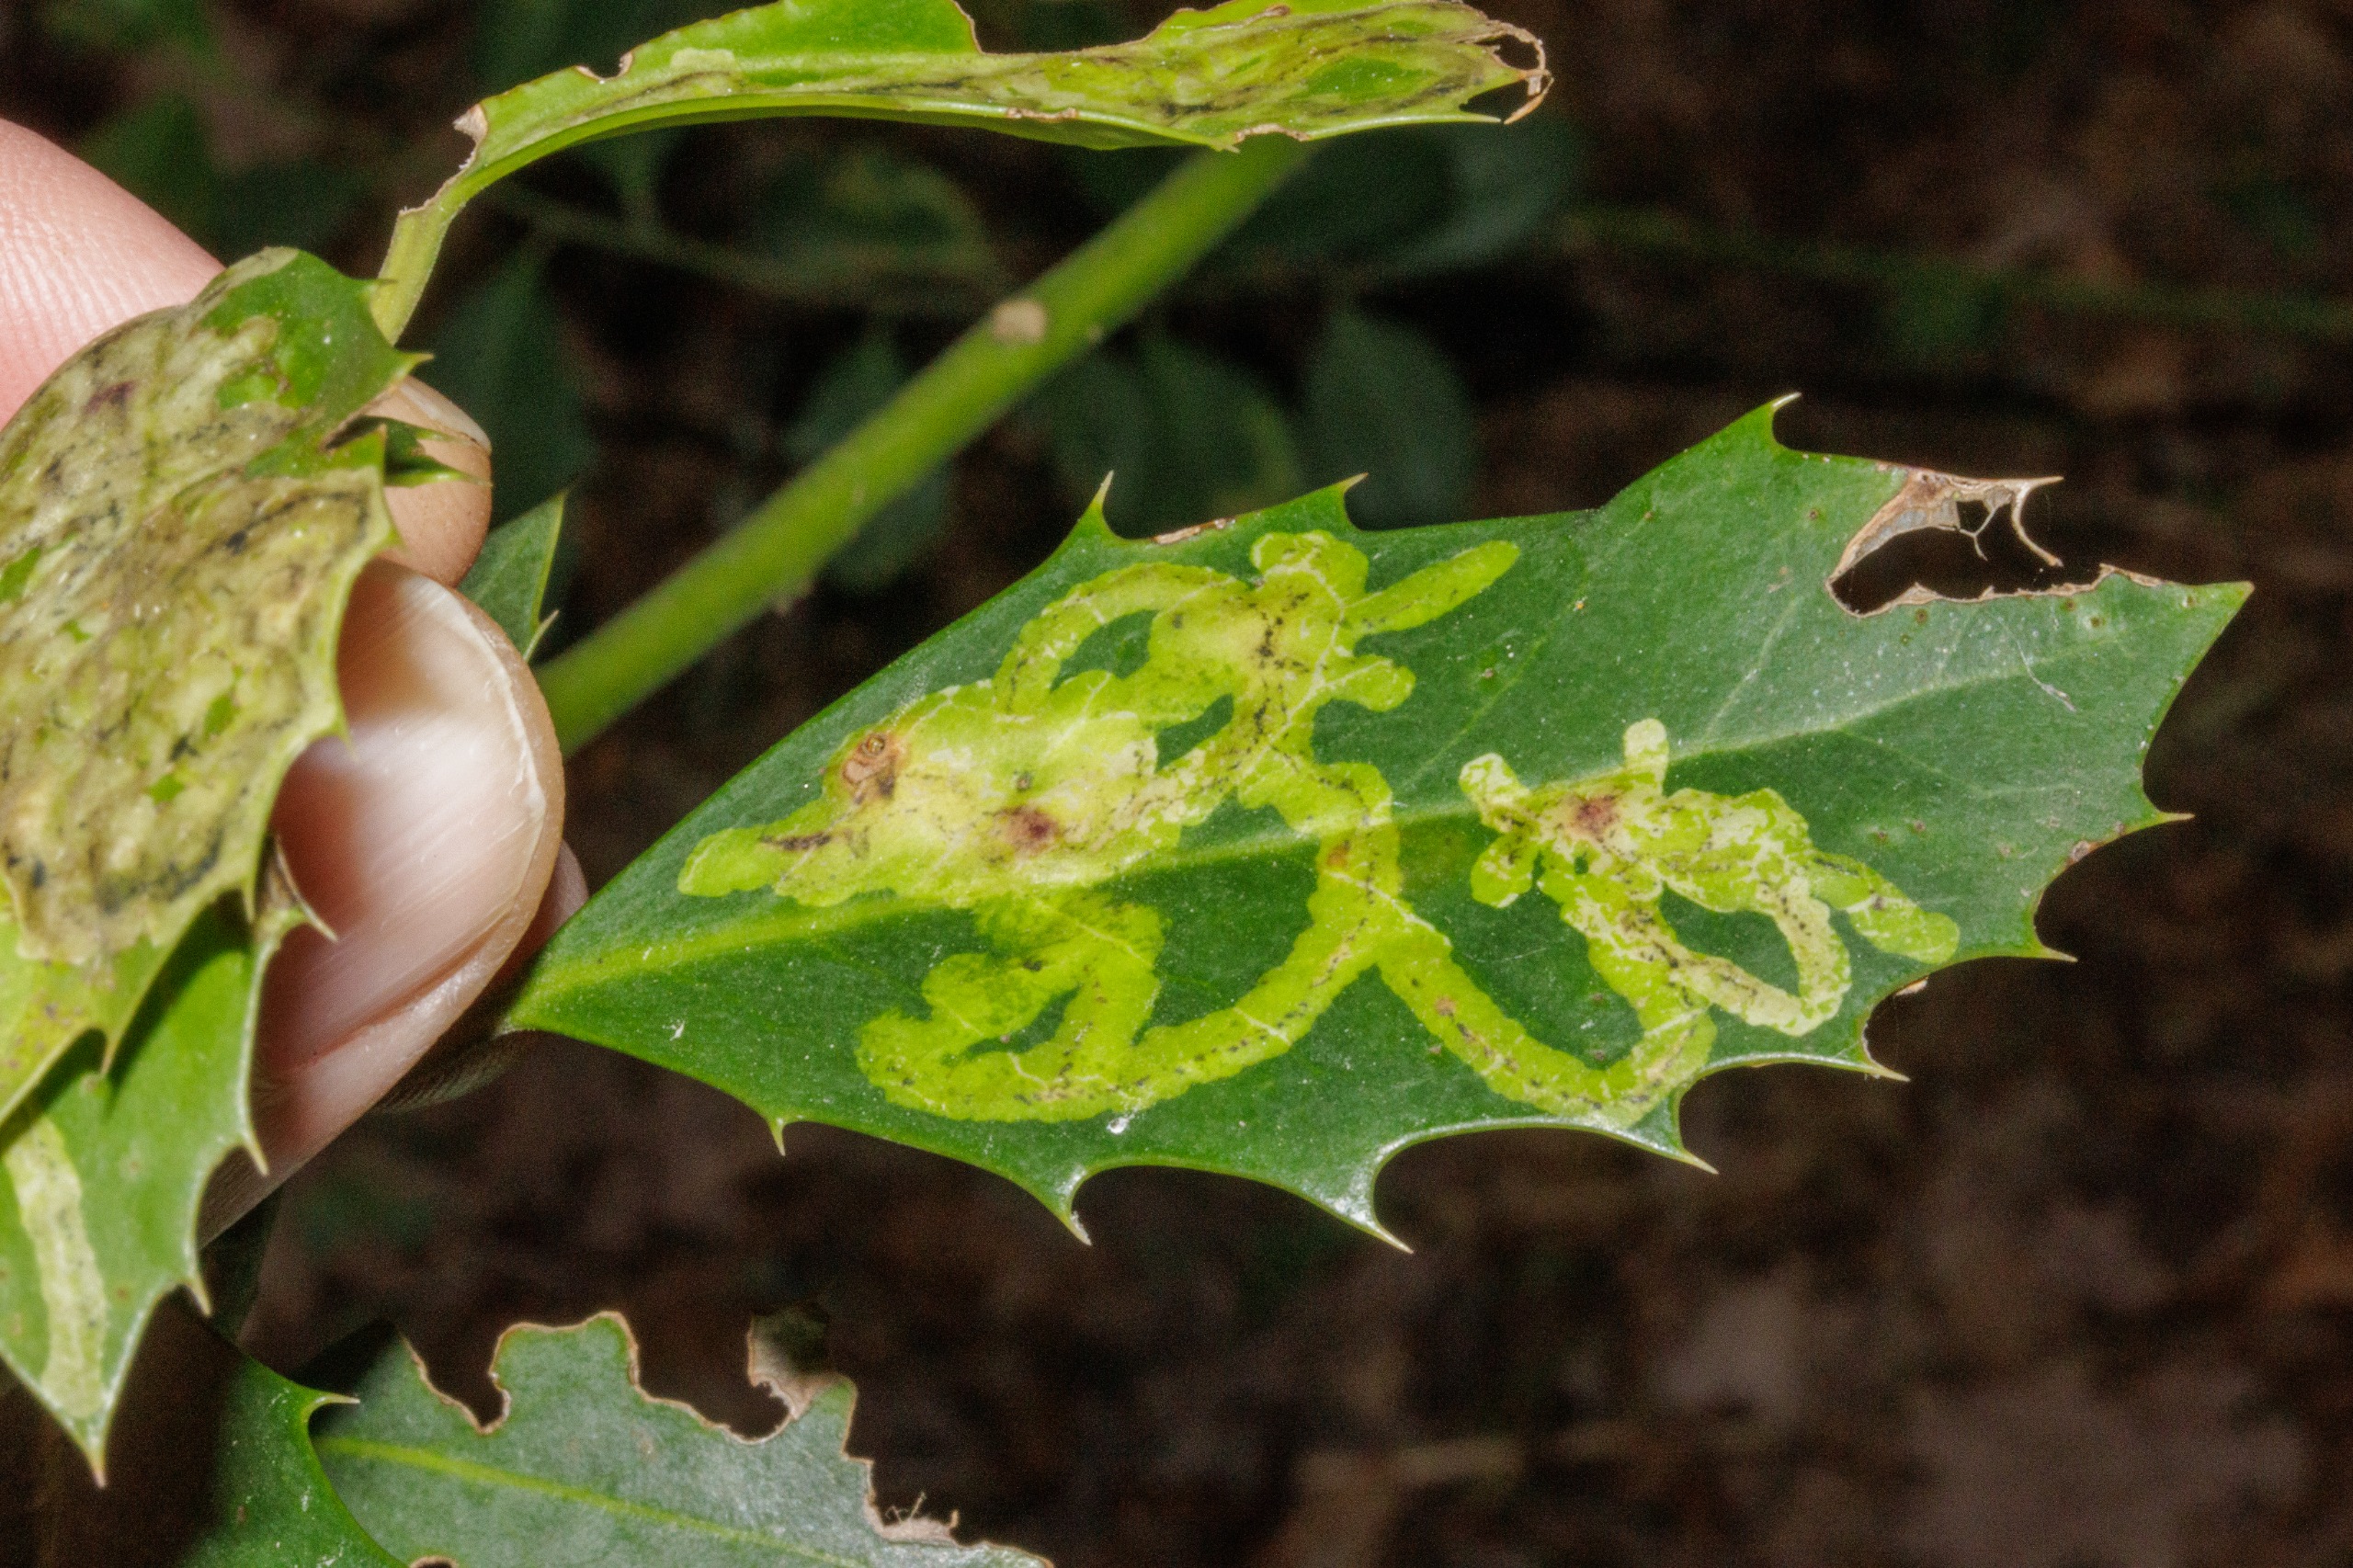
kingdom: Animalia
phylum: Arthropoda
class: Insecta
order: Diptera
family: Agromyzidae
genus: Phytomyza
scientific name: Phytomyza ilicis
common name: Kristtornminérflue
